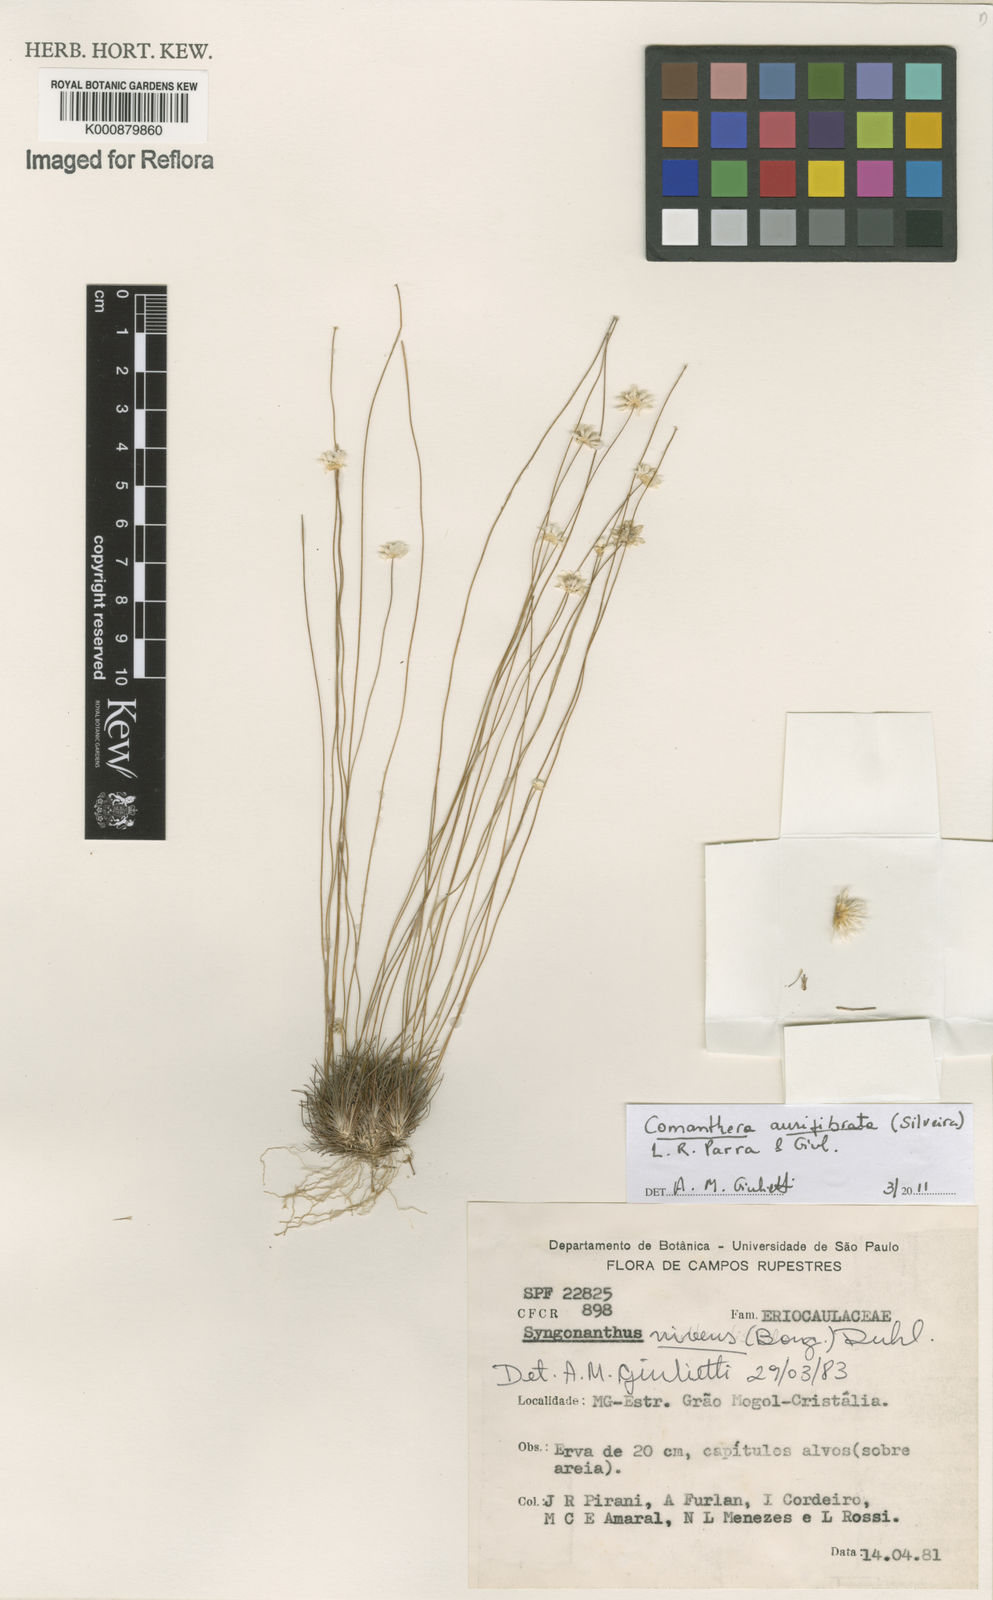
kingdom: Plantae
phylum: Tracheophyta
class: Liliopsida
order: Poales
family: Eriocaulaceae
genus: Comanthera
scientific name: Comanthera aurifibrata
